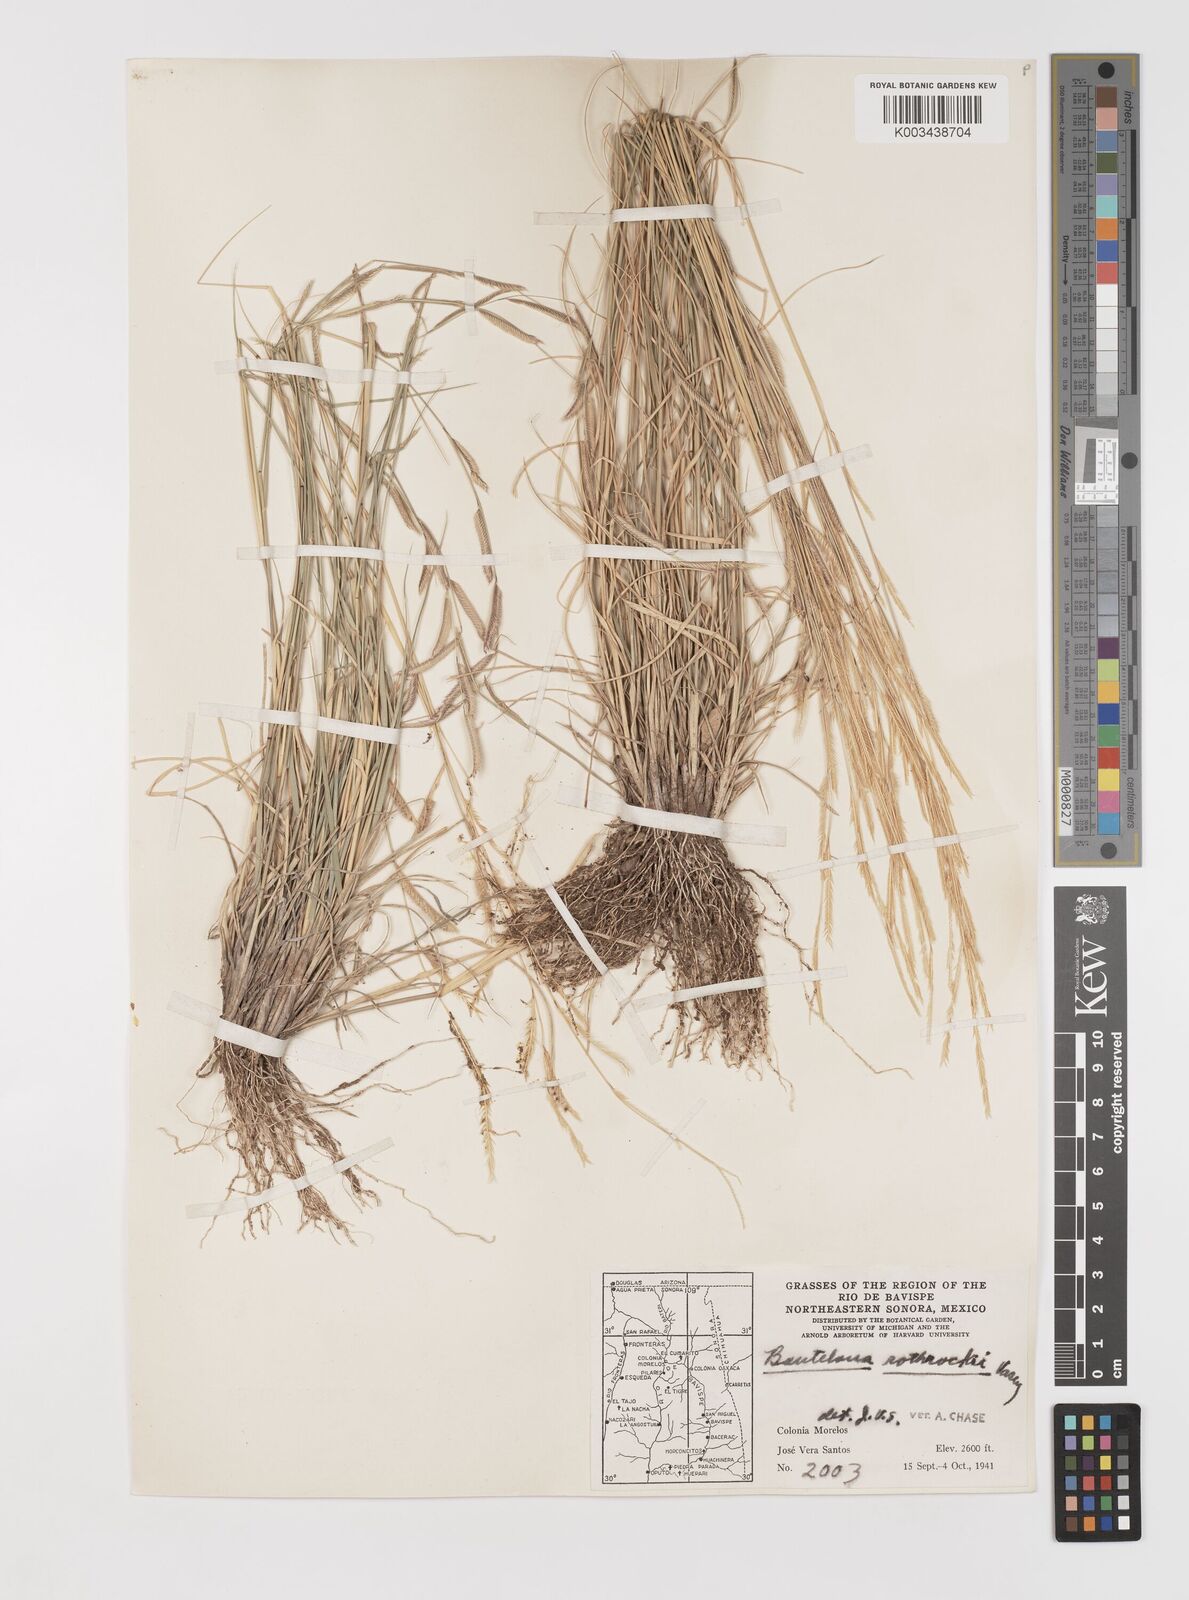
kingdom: Plantae
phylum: Tracheophyta
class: Liliopsida
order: Poales
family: Poaceae
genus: Bouteloua
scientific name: Bouteloua barbata
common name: Six-weeks grama
